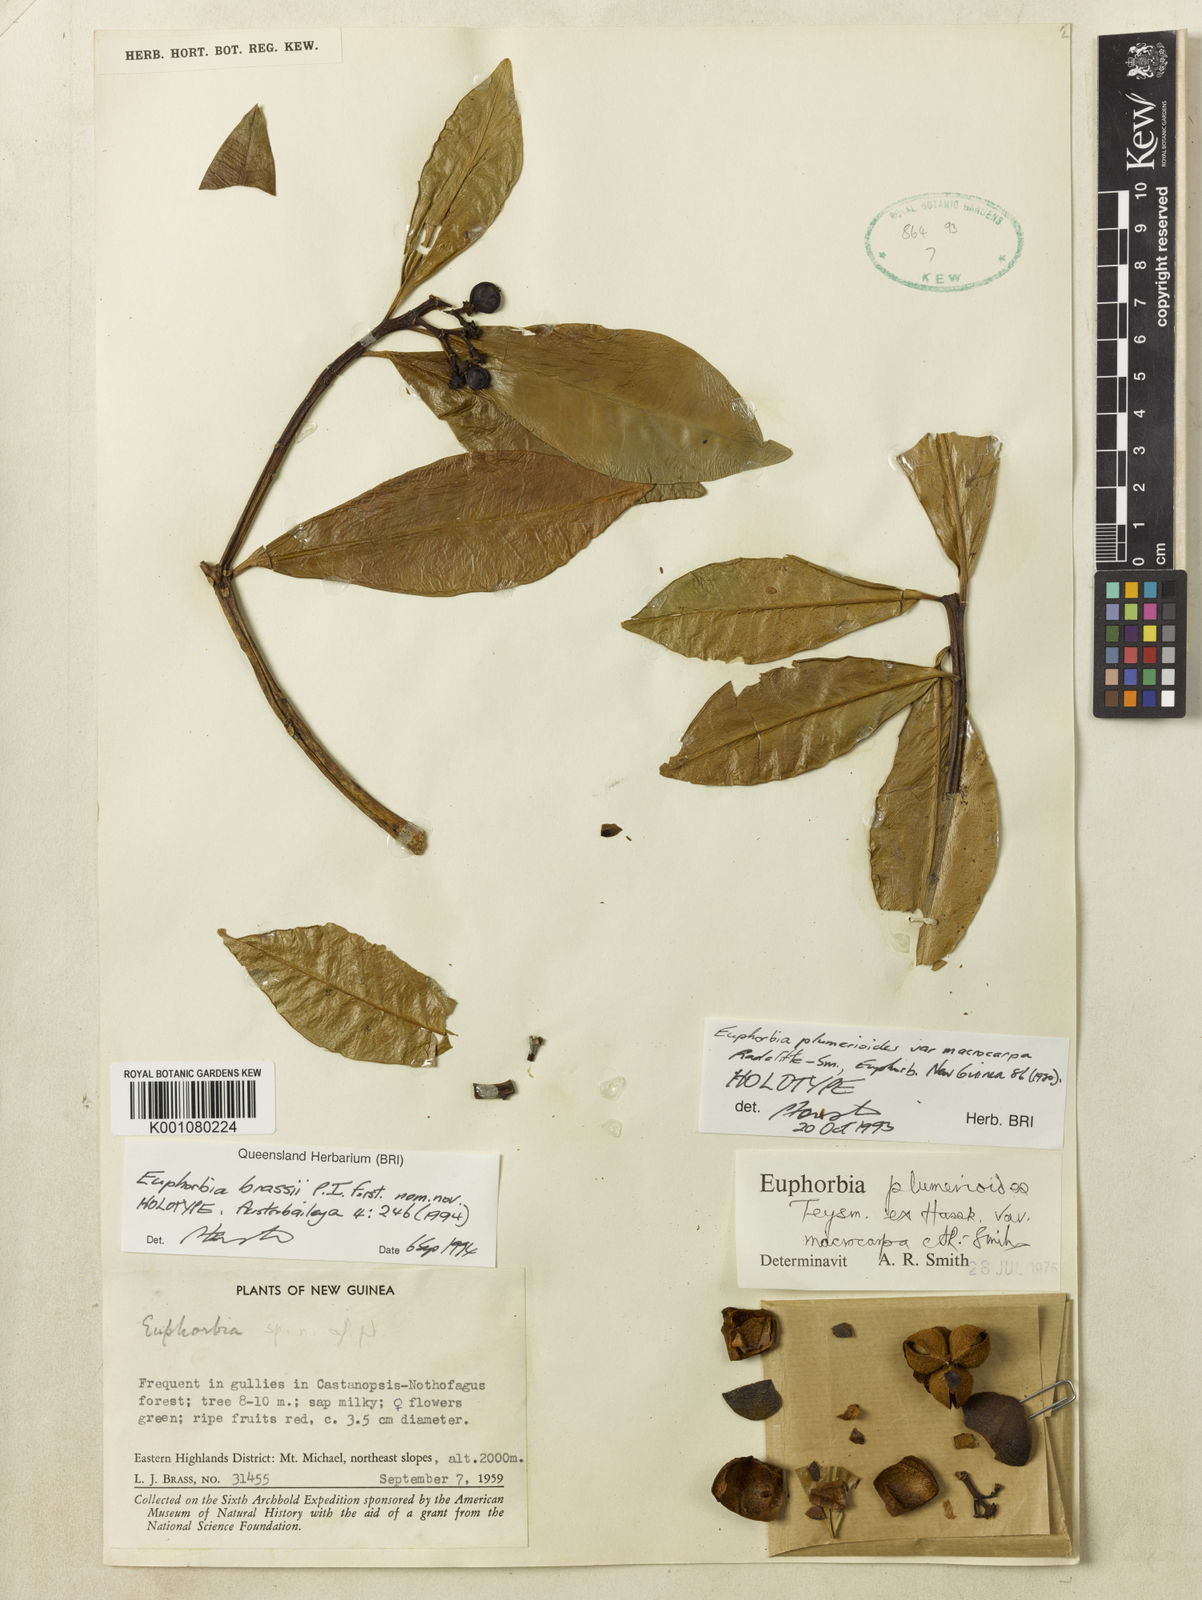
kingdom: Plantae
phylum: Tracheophyta
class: Magnoliopsida
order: Malpighiales
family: Euphorbiaceae
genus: Euphorbia
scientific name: Euphorbia brassii
